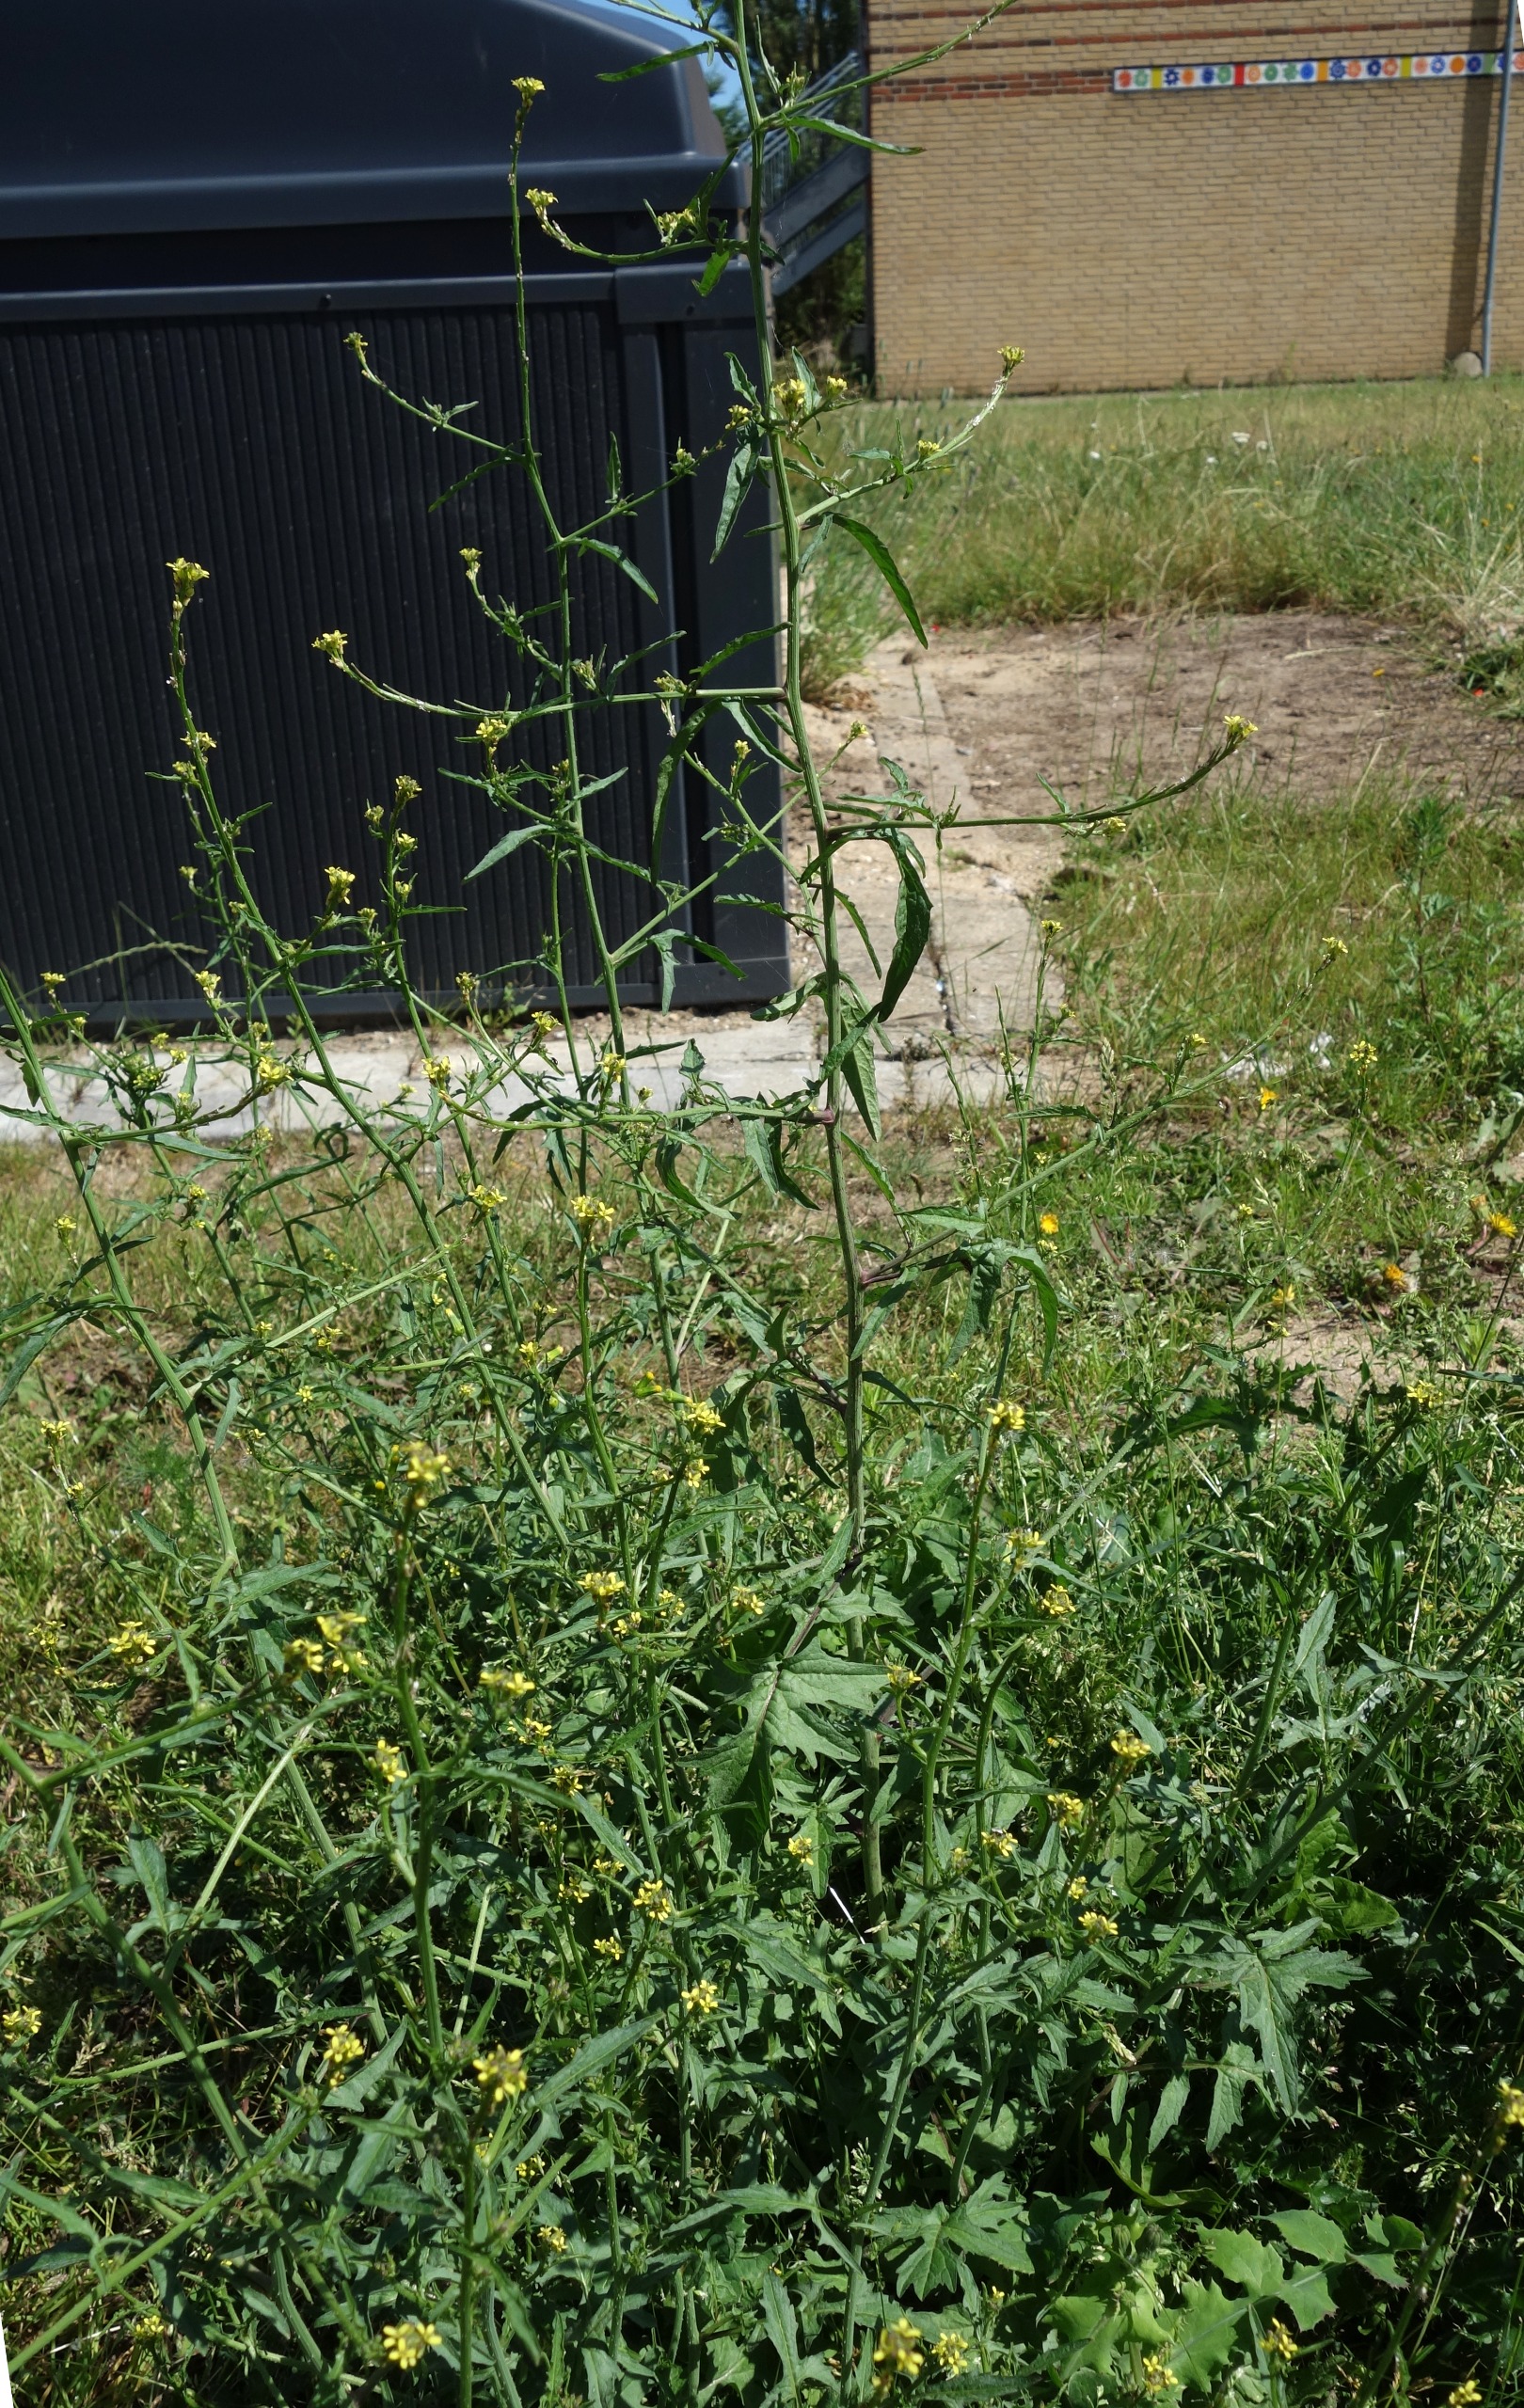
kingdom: Plantae
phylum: Tracheophyta
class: Magnoliopsida
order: Brassicales
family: Brassicaceae
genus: Sisymbrium
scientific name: Sisymbrium officinale
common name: Rank vejsennep
